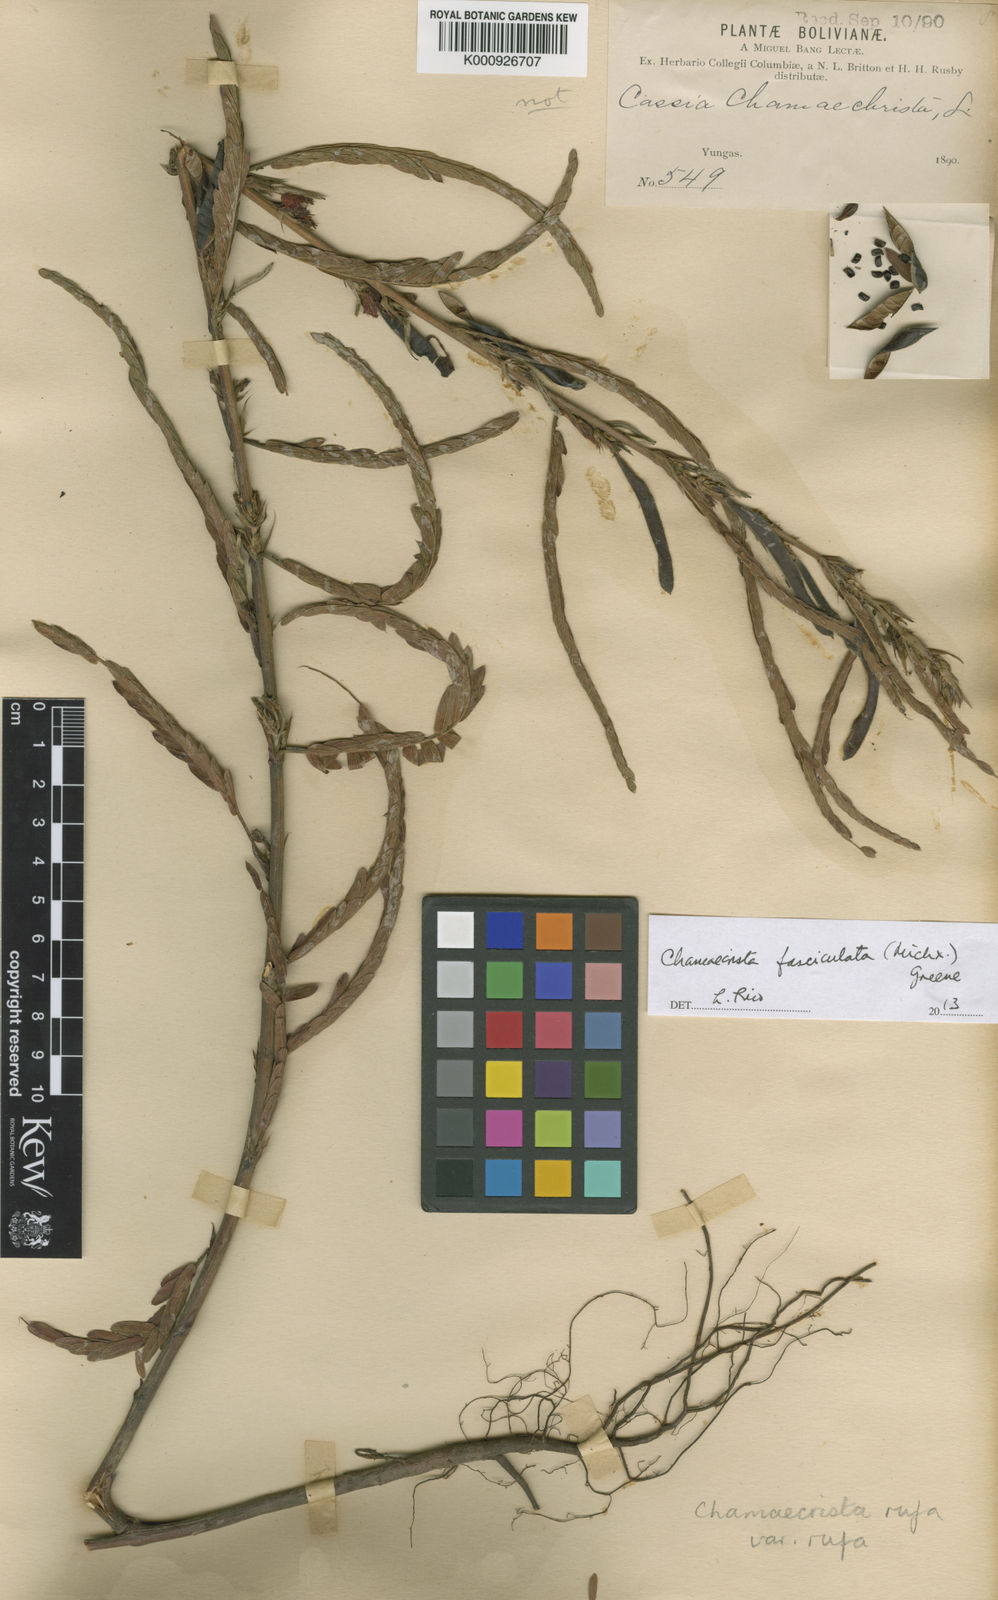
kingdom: Plantae
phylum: Tracheophyta
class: Magnoliopsida
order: Fabales
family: Fabaceae
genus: Chamaecrista
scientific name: Chamaecrista fasciculata
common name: Golden cassia
